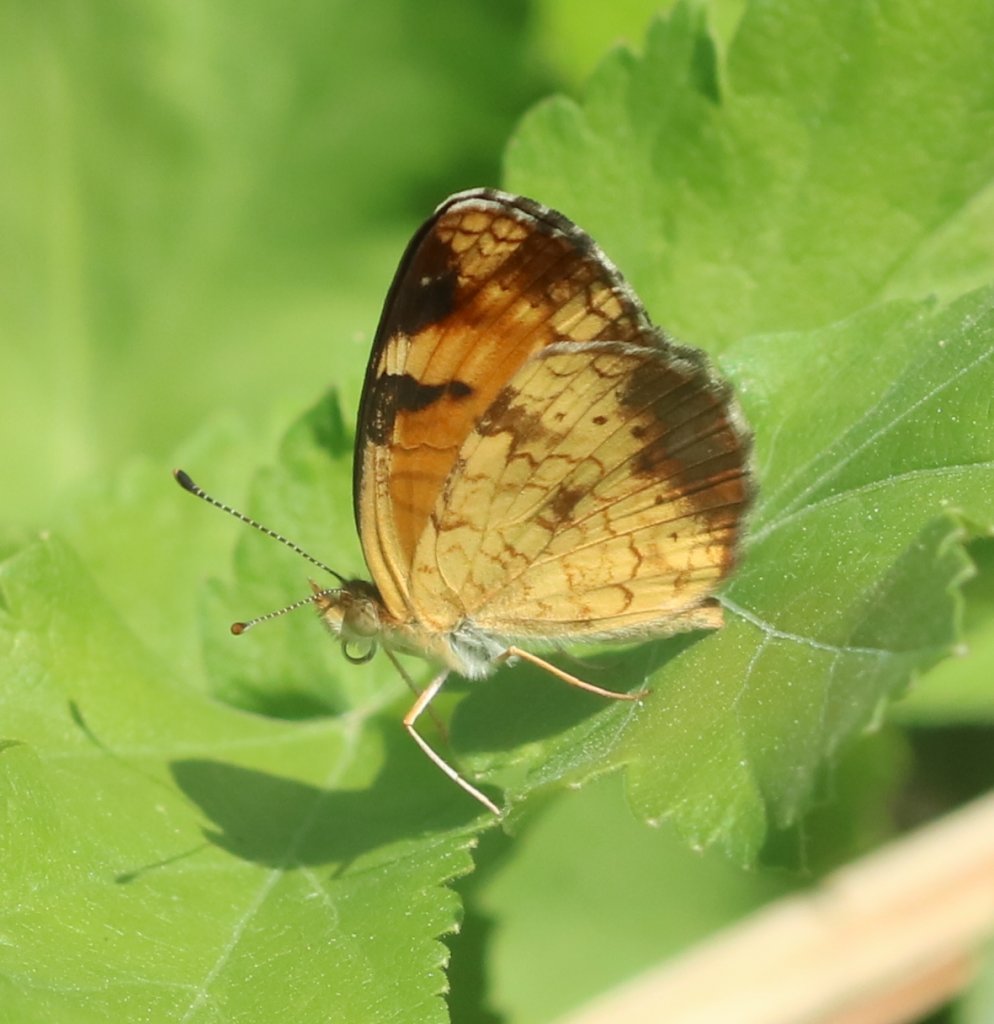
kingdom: Animalia
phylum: Arthropoda
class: Insecta
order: Lepidoptera
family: Nymphalidae
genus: Phyciodes
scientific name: Phyciodes tharos
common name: Northern Crescent
